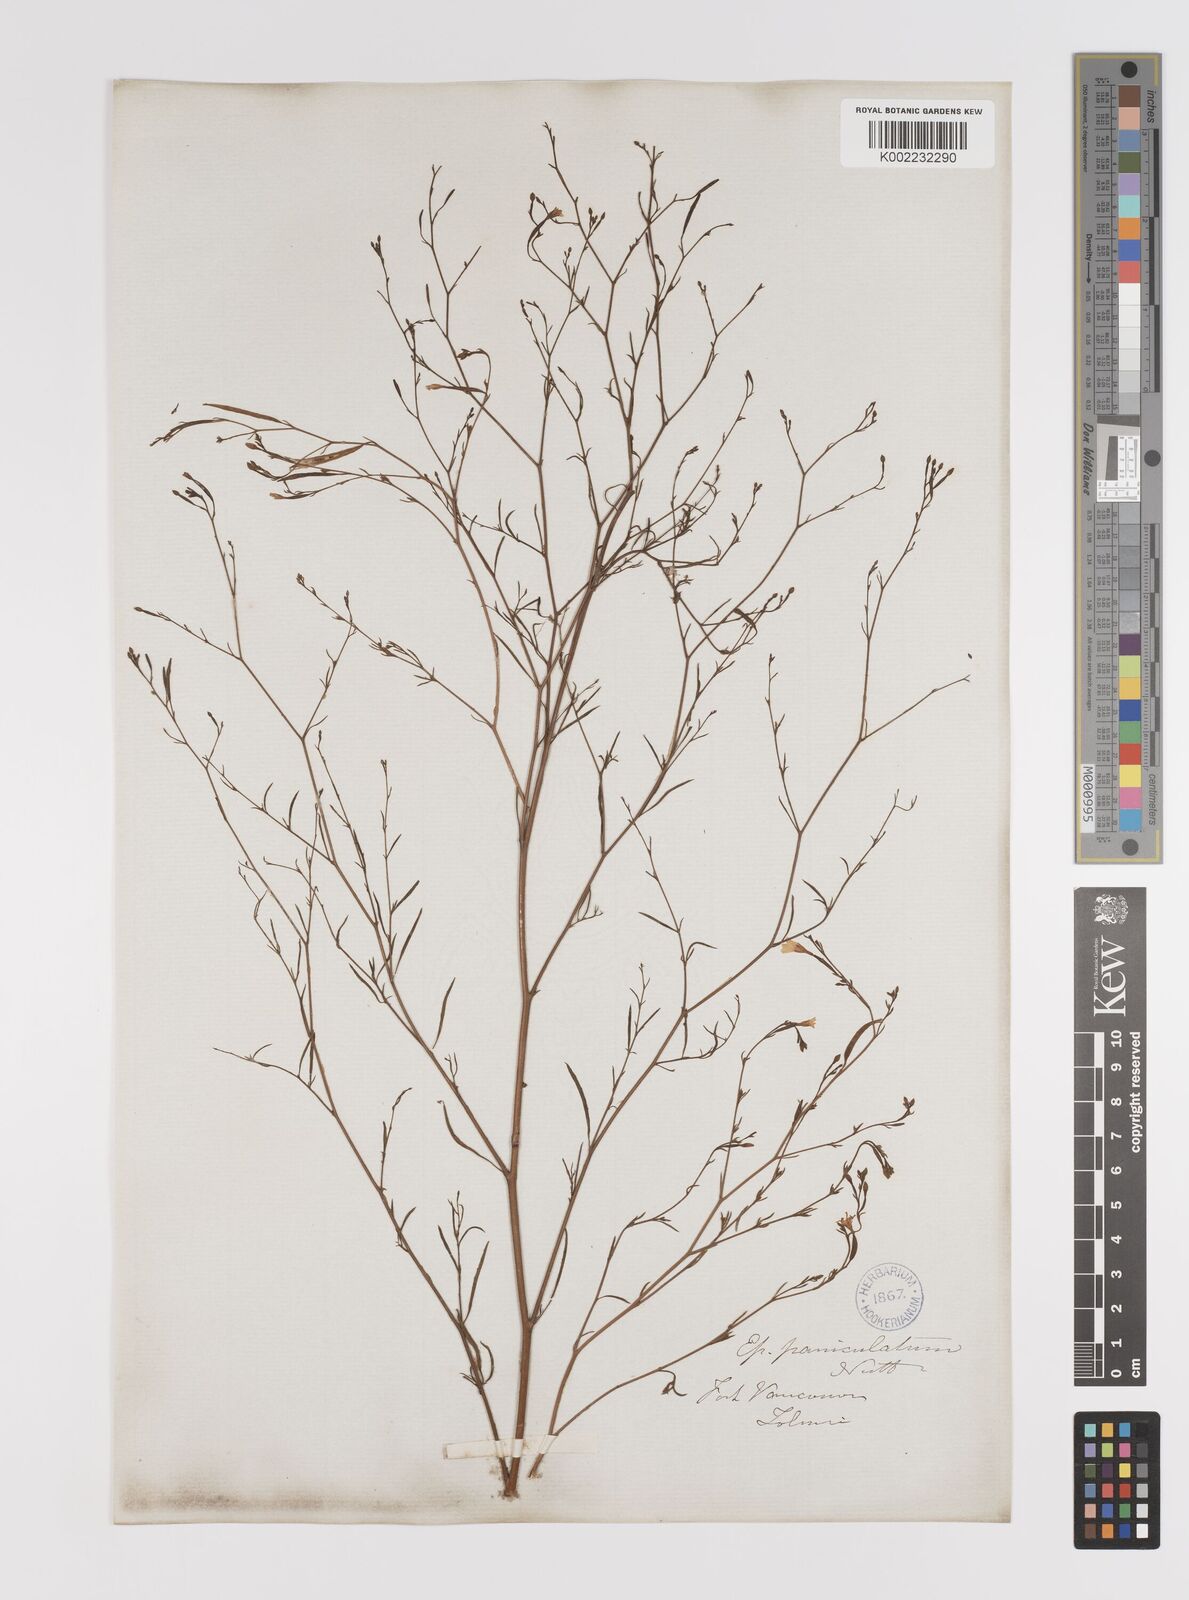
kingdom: Plantae
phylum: Tracheophyta
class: Magnoliopsida
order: Myrtales
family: Onagraceae
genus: Epilobium
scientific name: Epilobium
